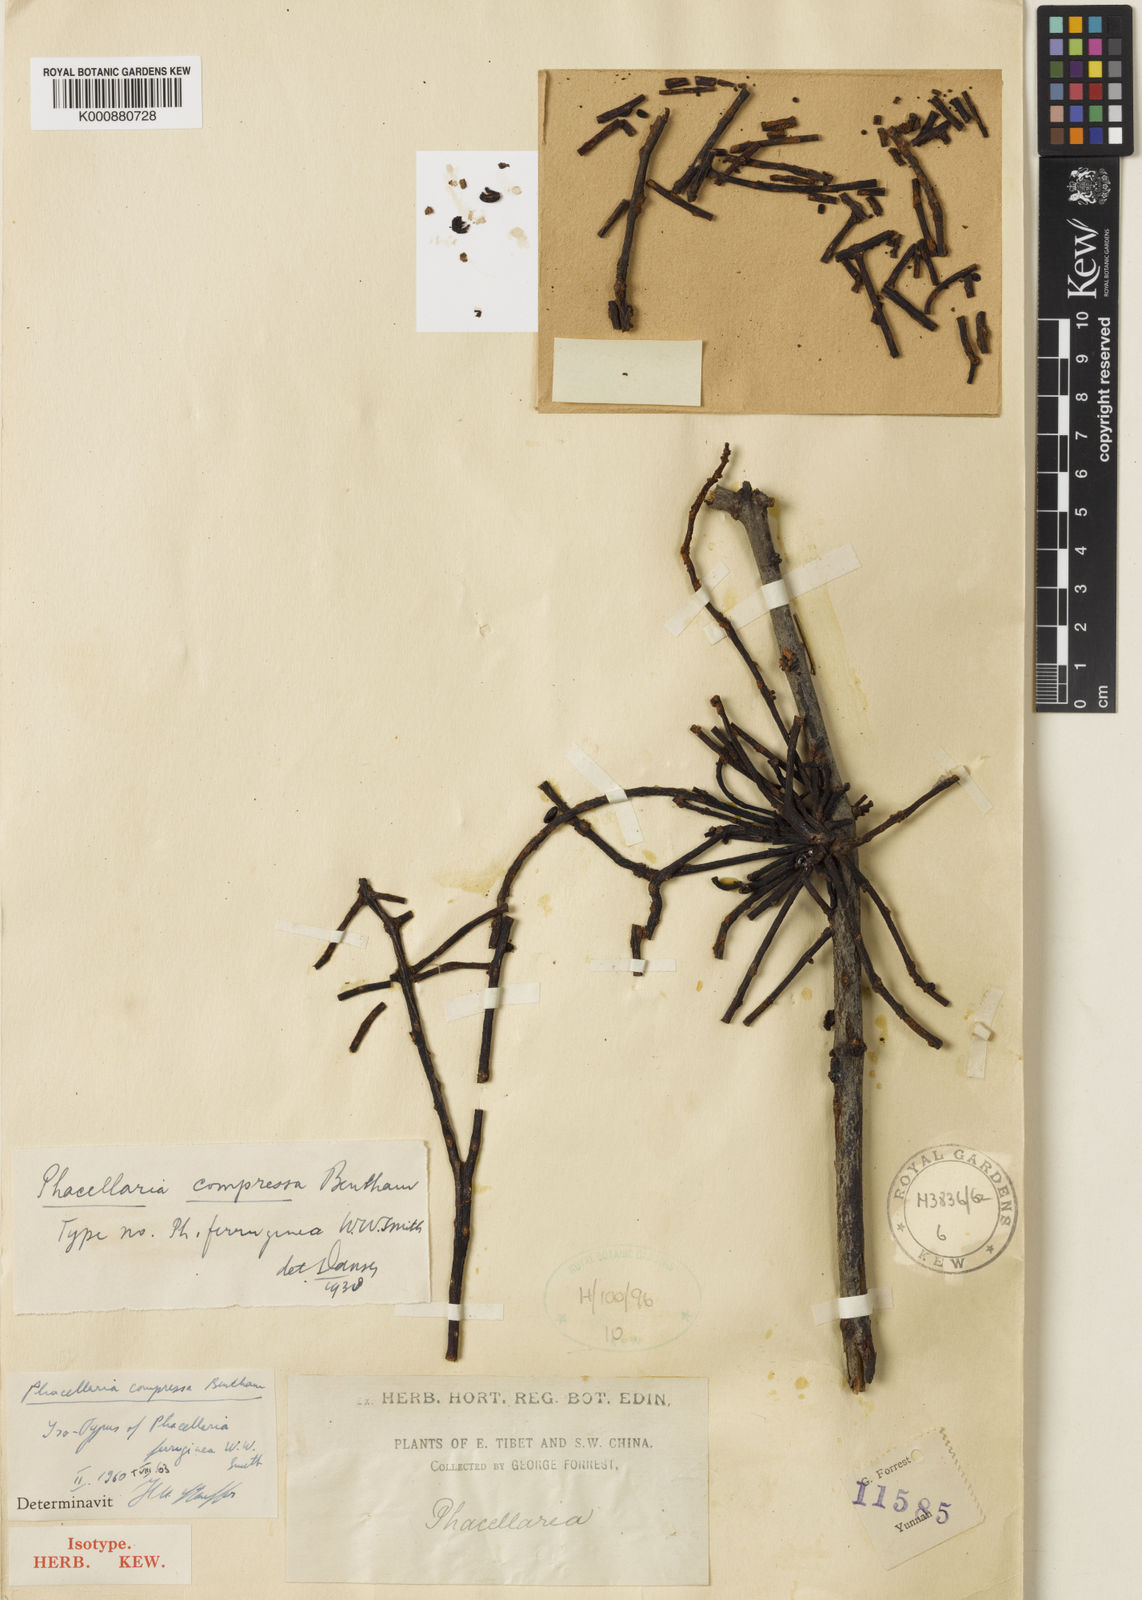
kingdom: Plantae
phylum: Tracheophyta
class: Magnoliopsida
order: Santalales
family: Amphorogynaceae
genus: Phacellaria
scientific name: Phacellaria compressa
